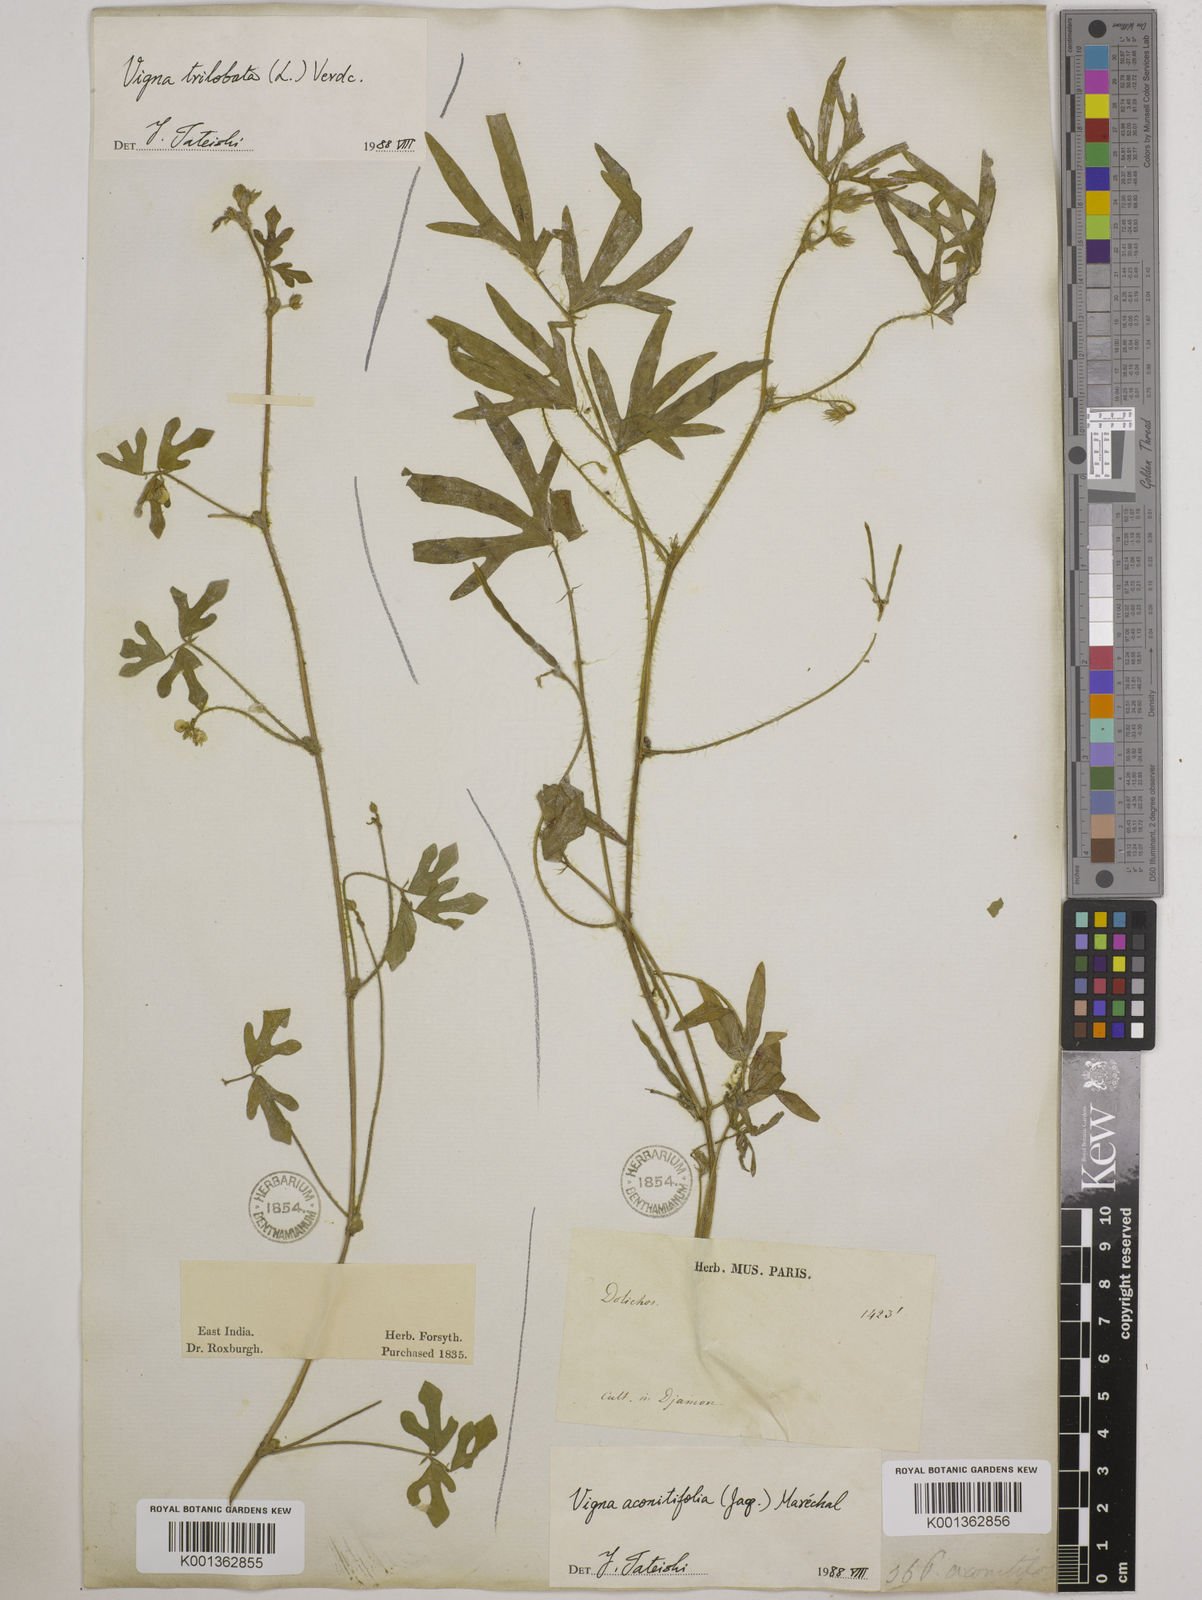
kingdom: Plantae
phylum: Tracheophyta
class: Magnoliopsida
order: Fabales
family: Fabaceae
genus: Vigna
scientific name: Vigna aconitifolia
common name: Dew bean
